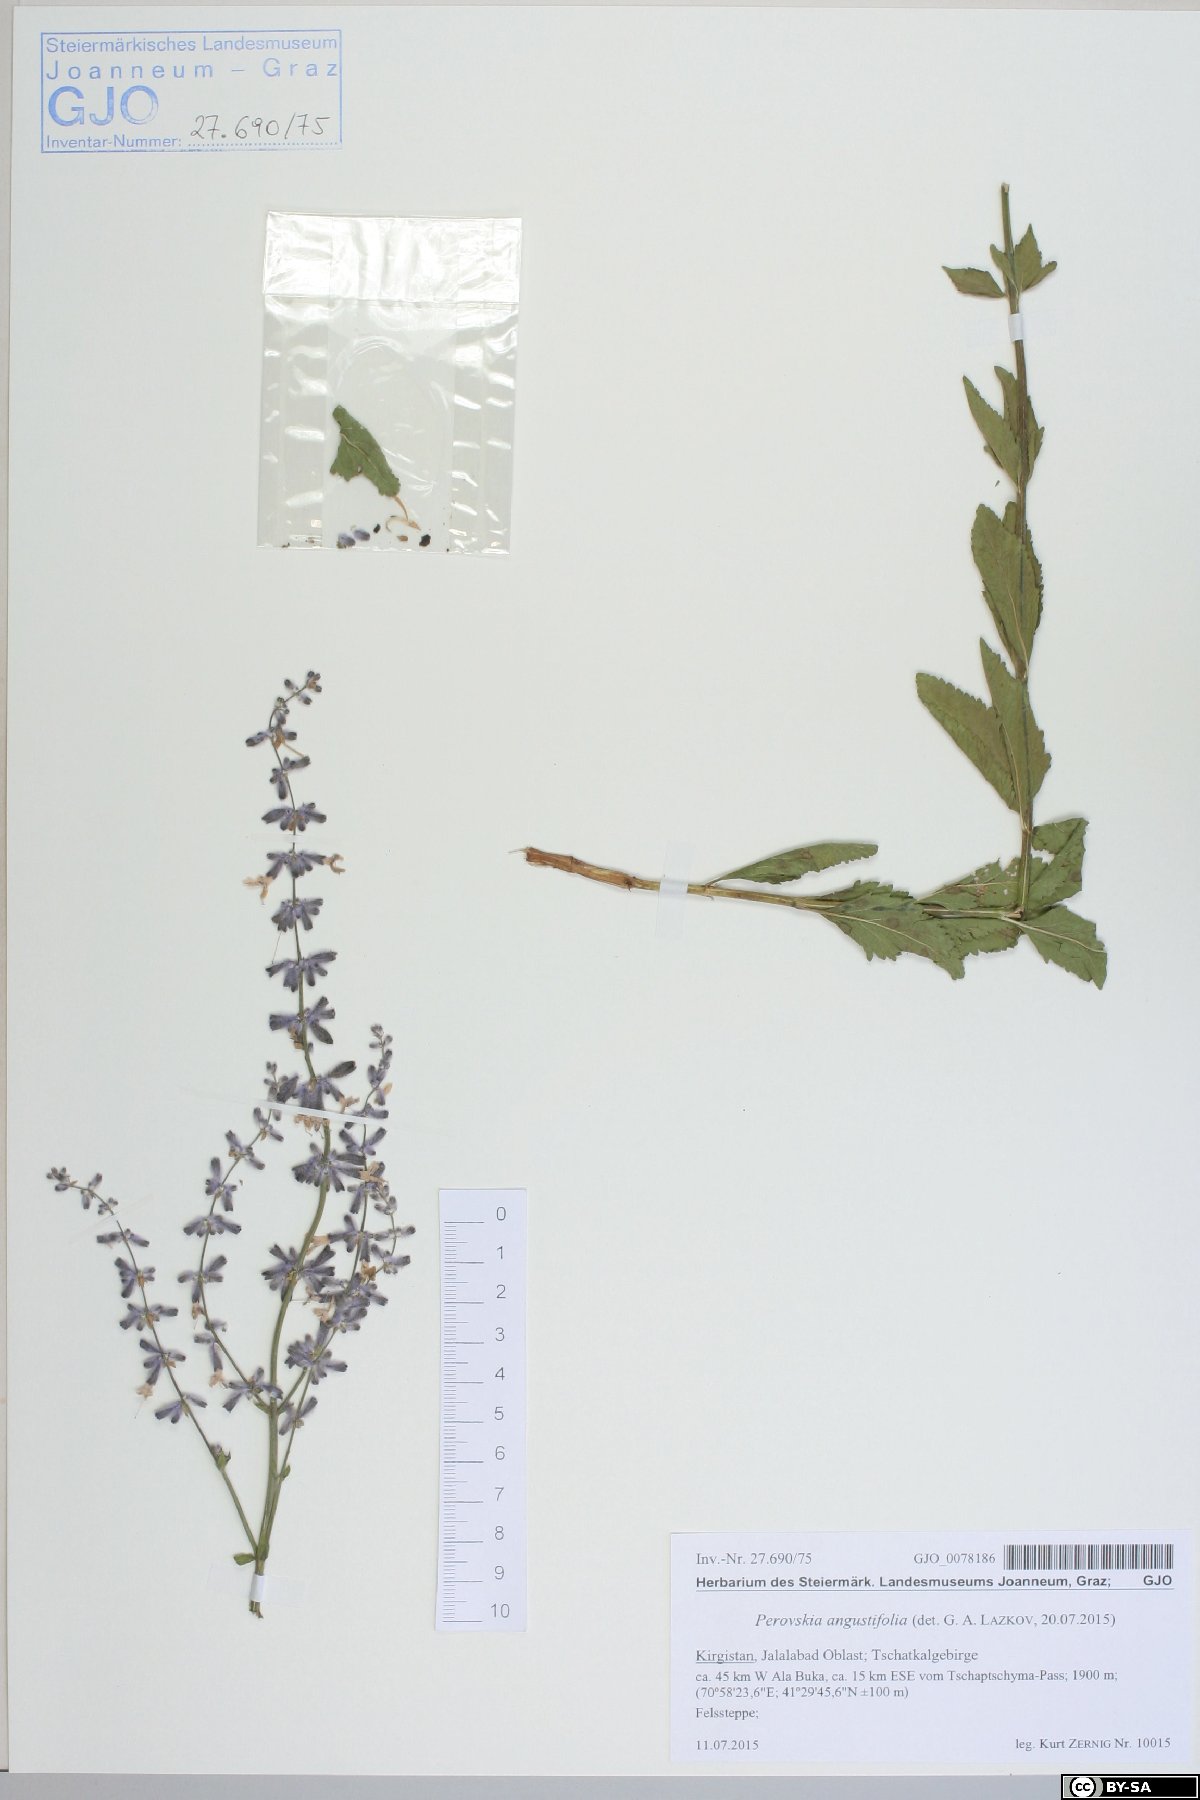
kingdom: Plantae
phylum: Tracheophyta
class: Magnoliopsida
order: Lamiales
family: Lamiaceae
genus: Salvia
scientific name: Salvia karelinii
